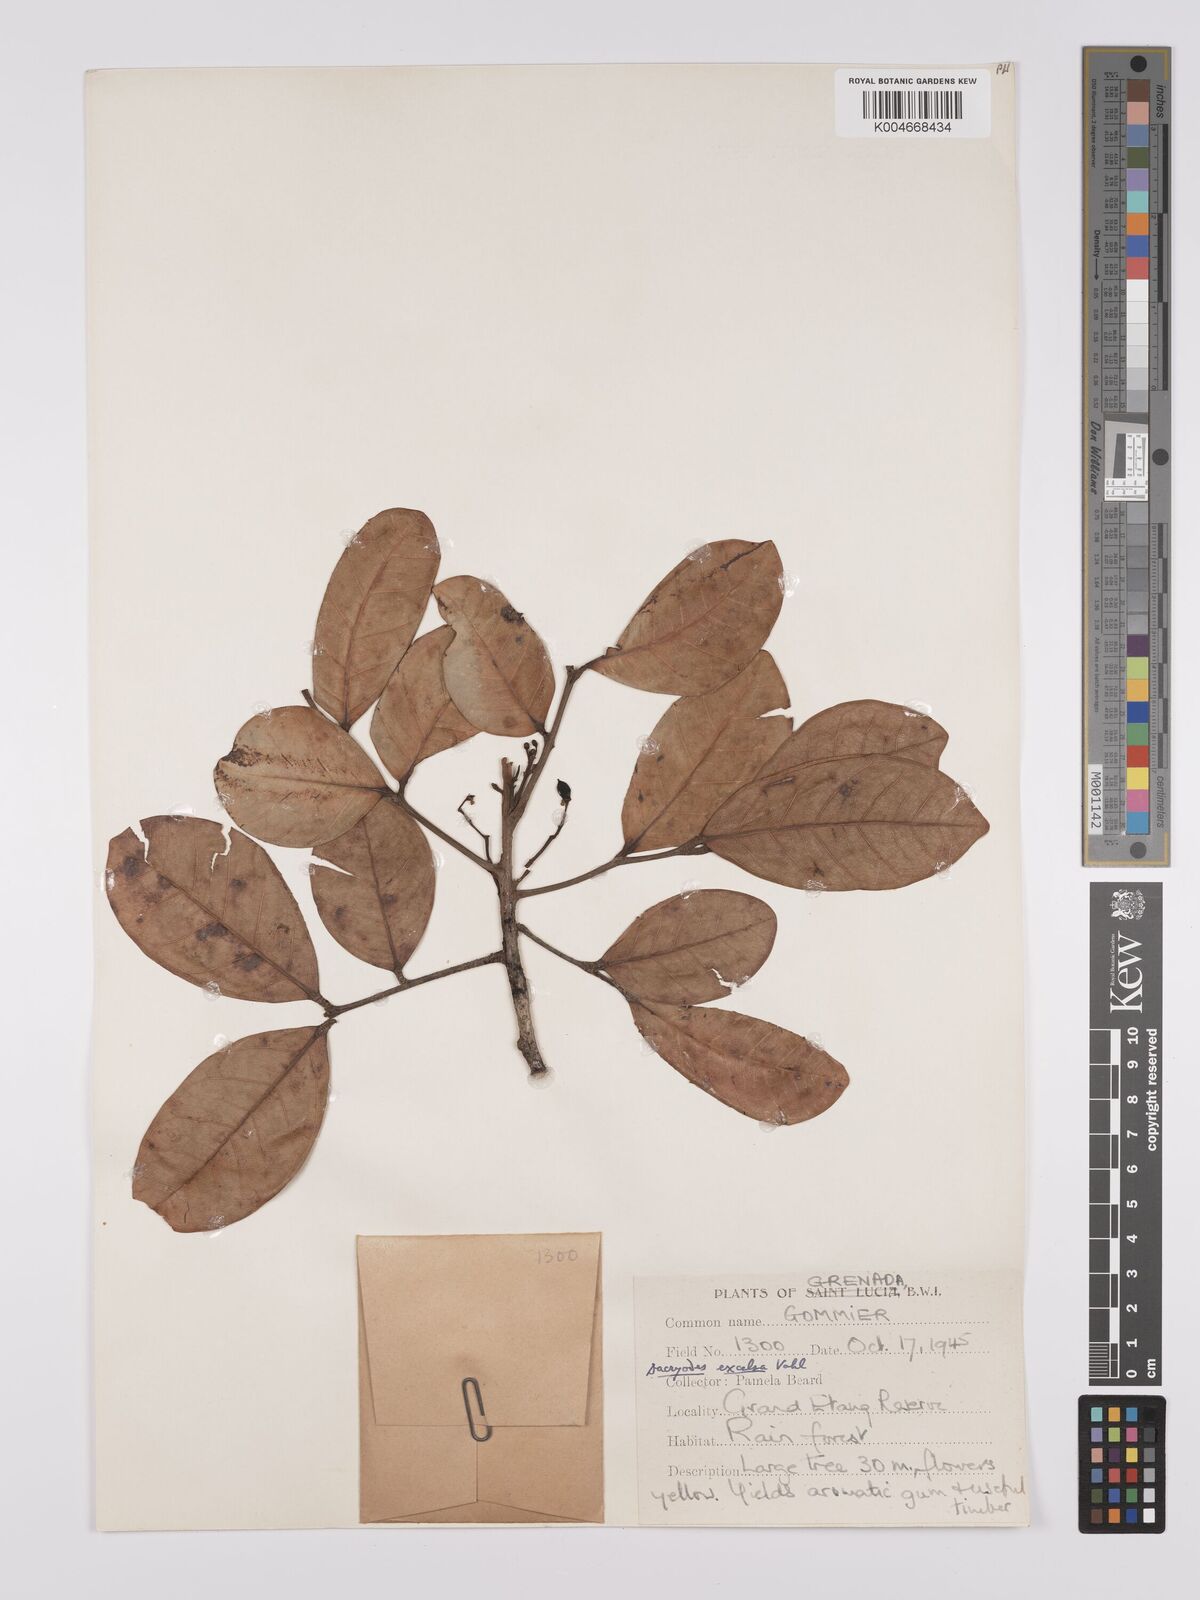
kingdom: Plantae
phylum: Tracheophyta
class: Magnoliopsida
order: Sapindales
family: Burseraceae
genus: Dacryodes
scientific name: Dacryodes excelsa
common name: Candlewood
